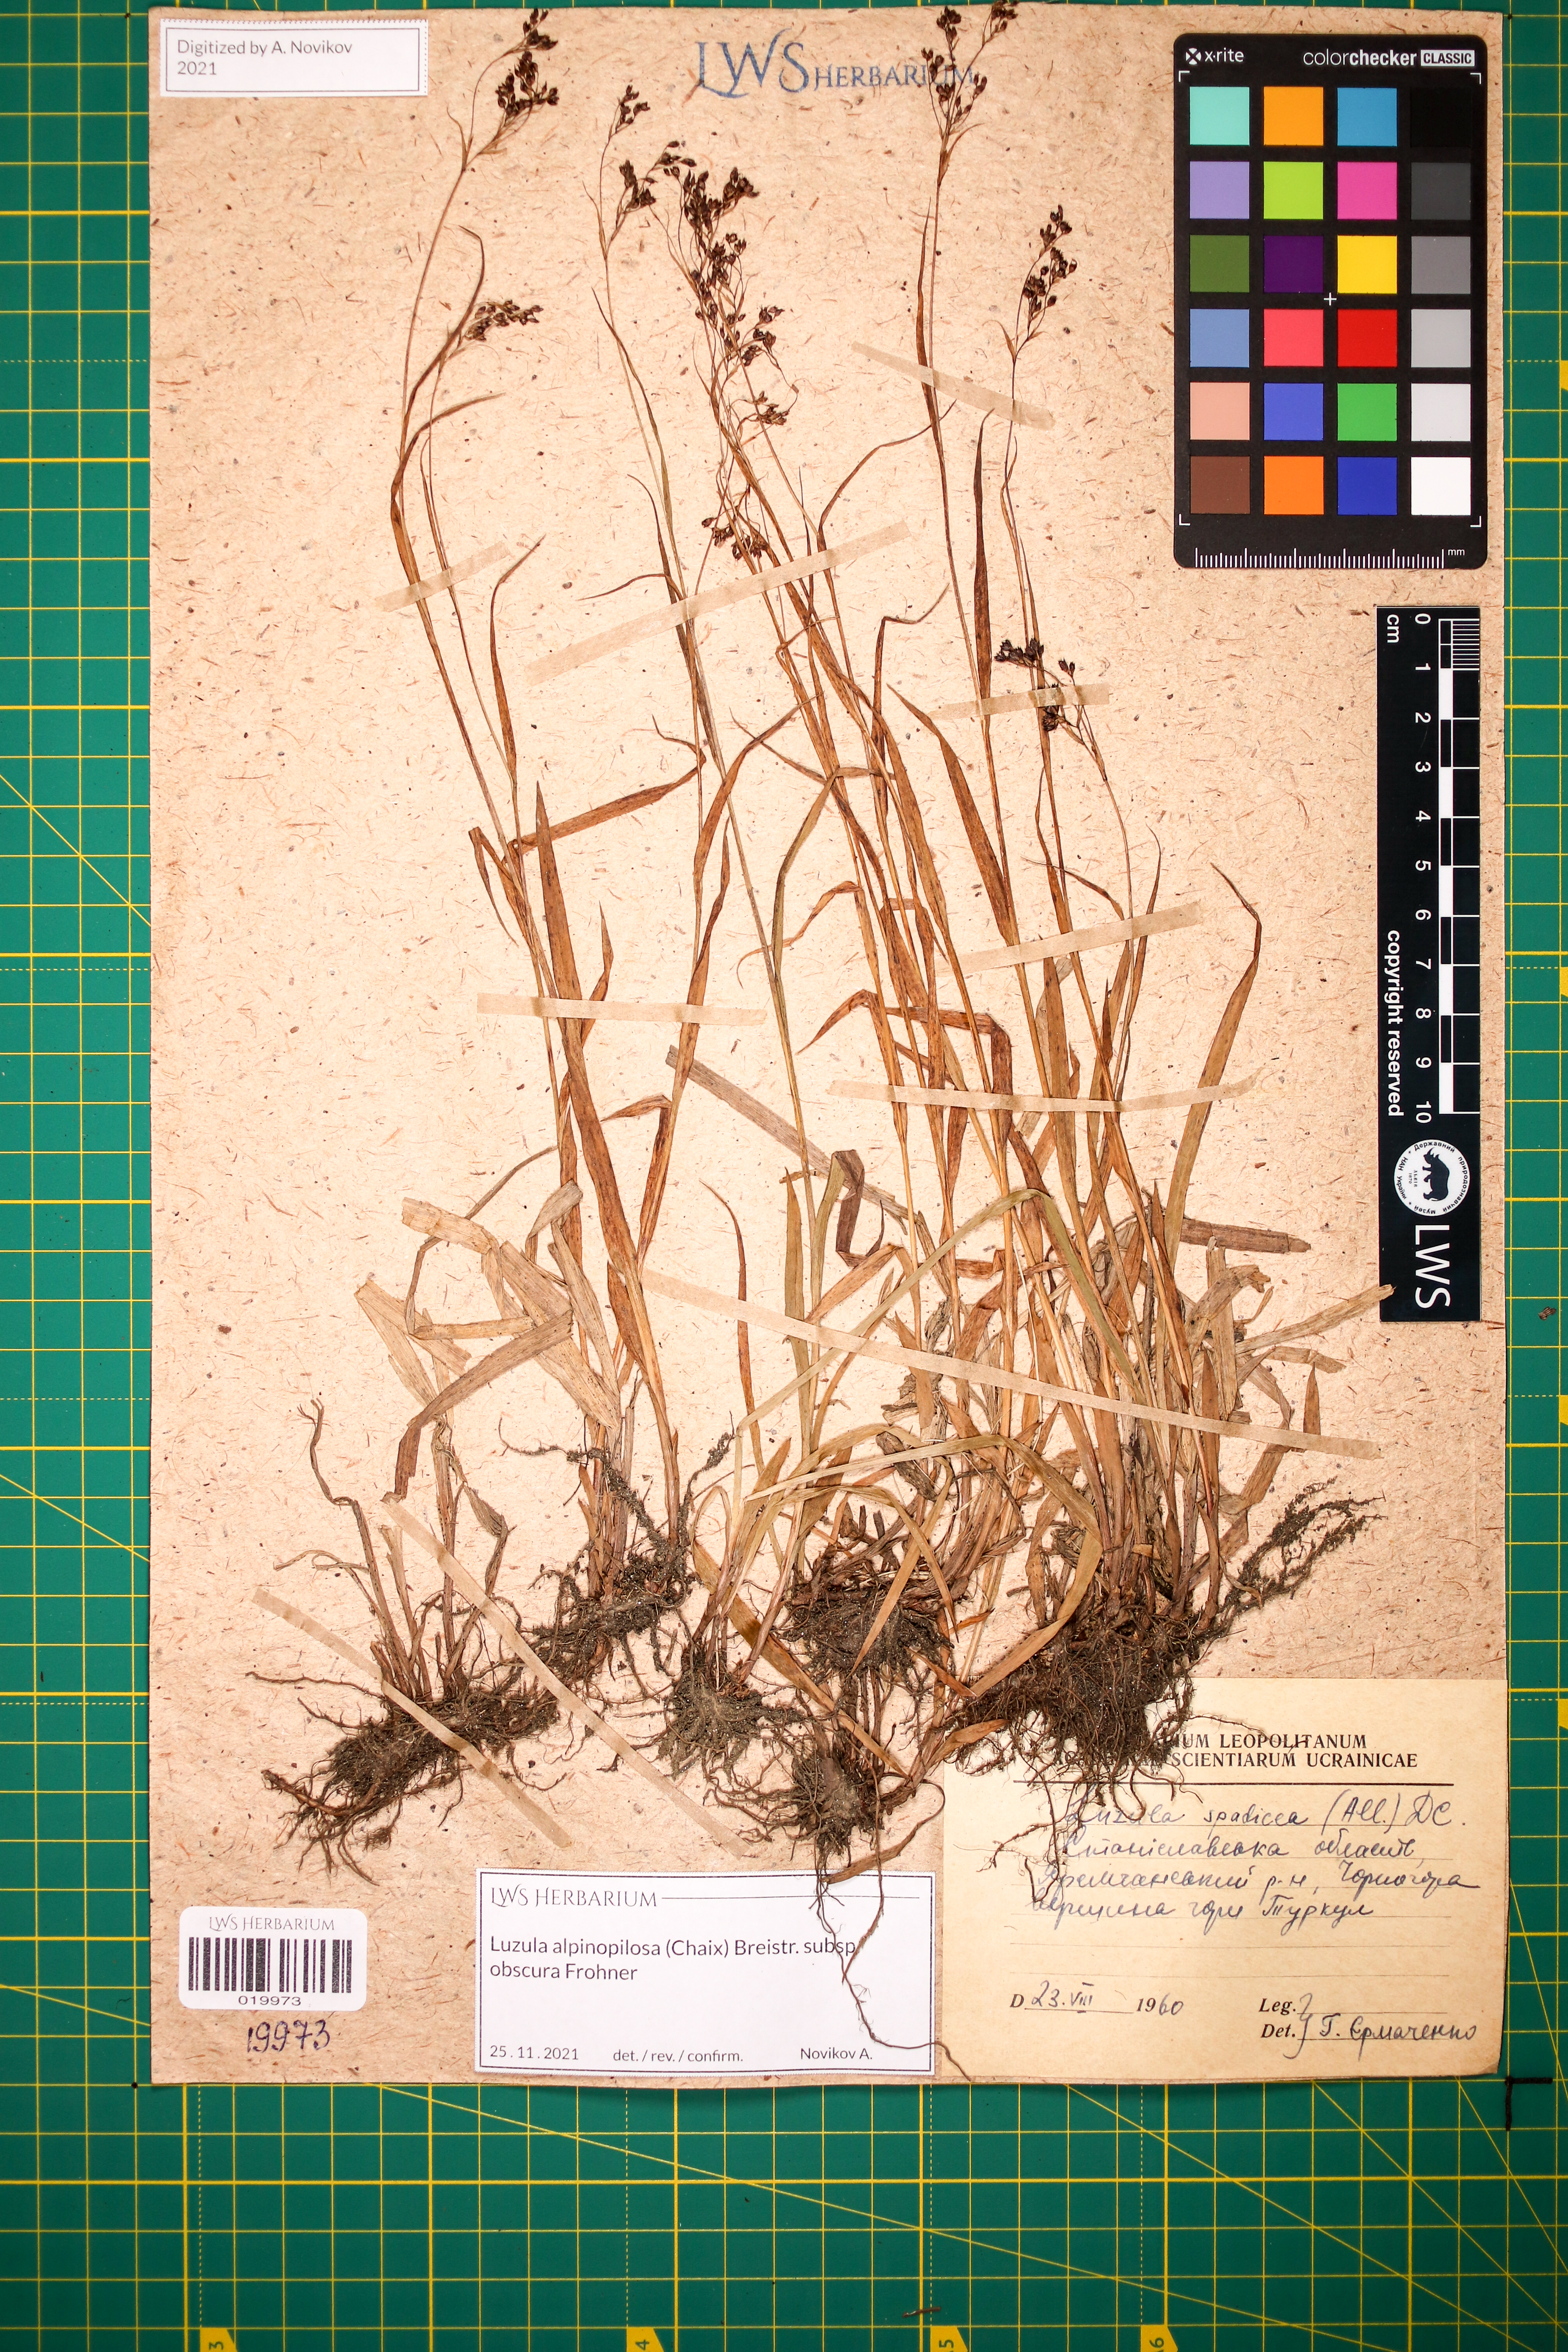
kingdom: Plantae
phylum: Tracheophyta
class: Liliopsida
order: Poales
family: Juncaceae
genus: Luzula
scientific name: Luzula alpinopilosa
